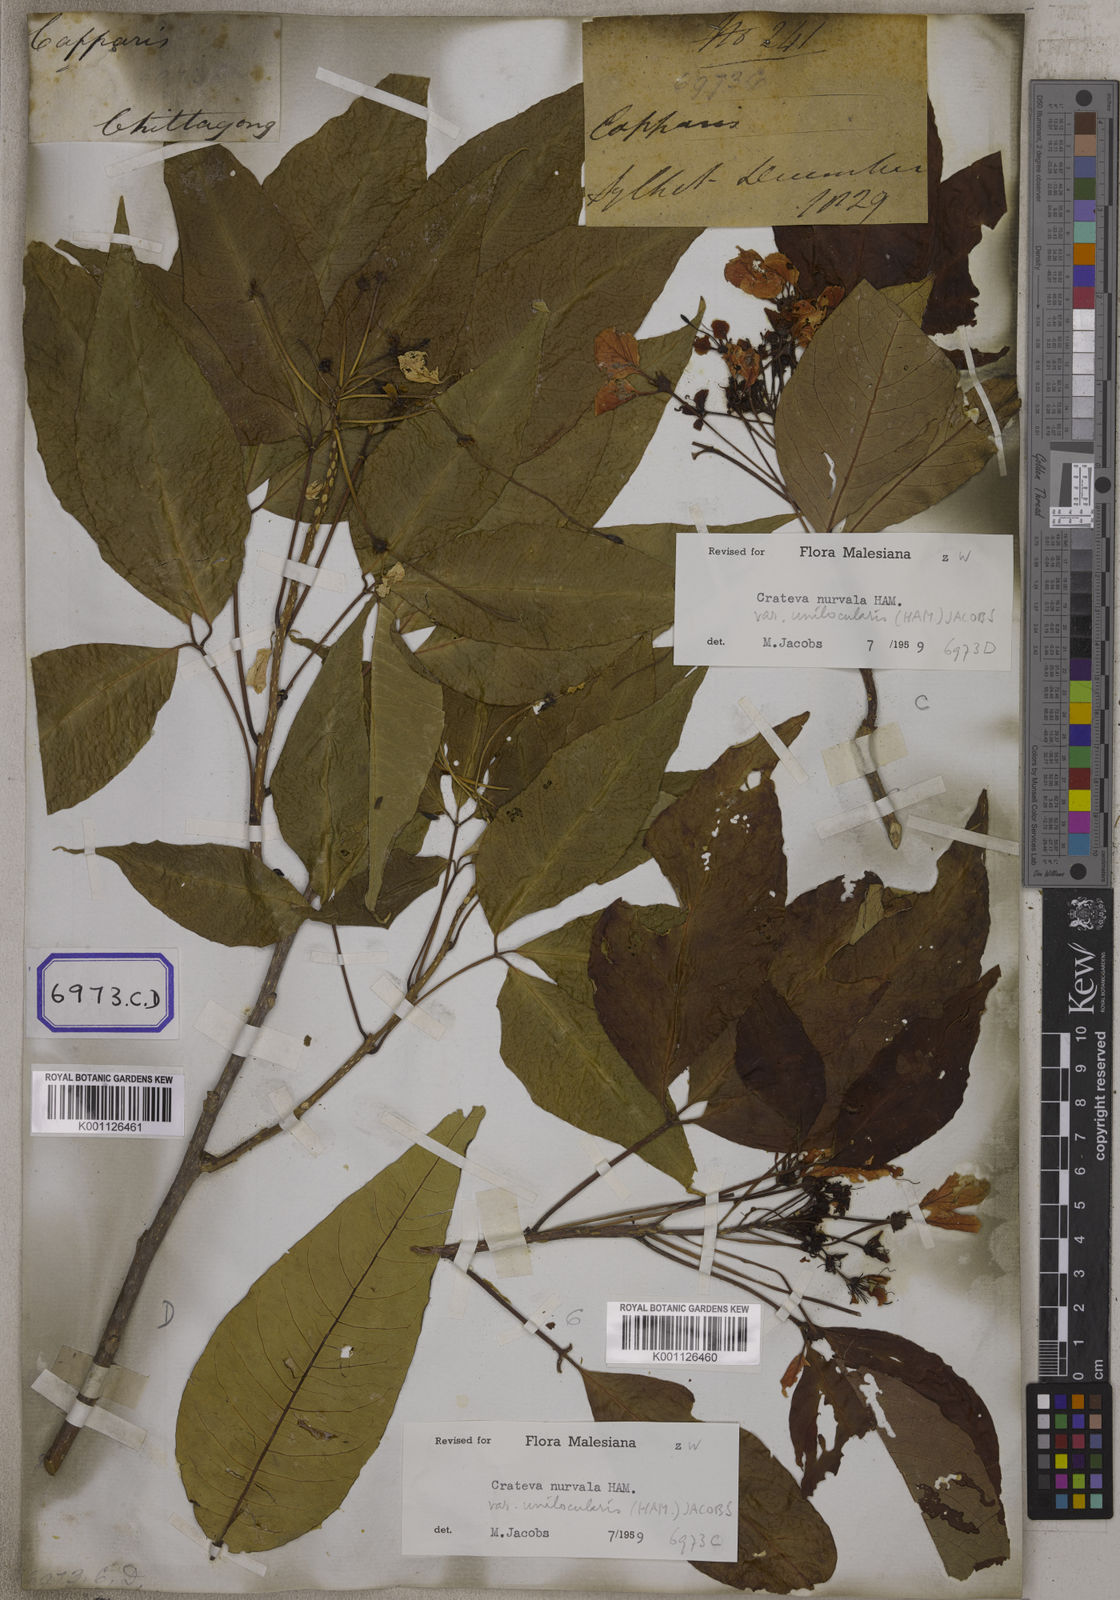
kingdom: Plantae
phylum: Tracheophyta
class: Magnoliopsida
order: Brassicales
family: Capparaceae
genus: Crateva
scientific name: Crateva magna
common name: Three-leaf-caper
